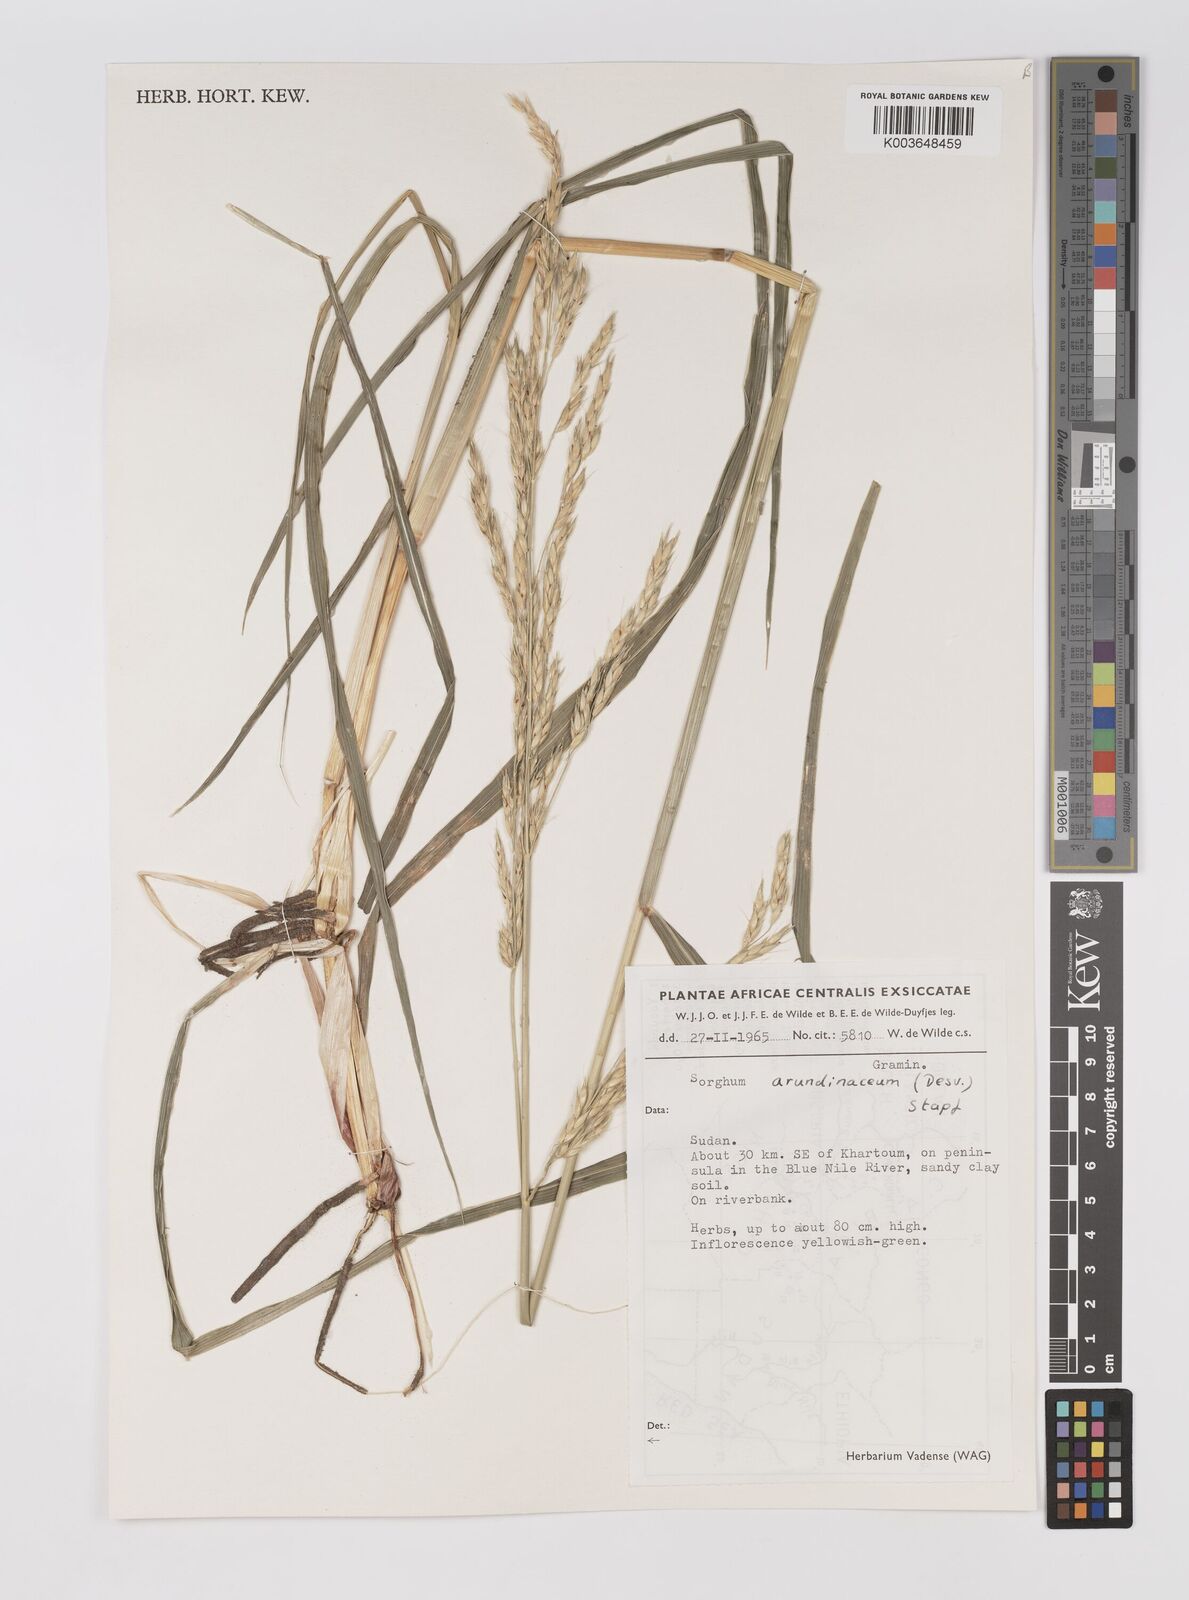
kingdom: Plantae
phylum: Tracheophyta
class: Liliopsida
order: Poales
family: Poaceae
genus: Sorghum
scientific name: Sorghum arundinaceum
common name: Sorghum
